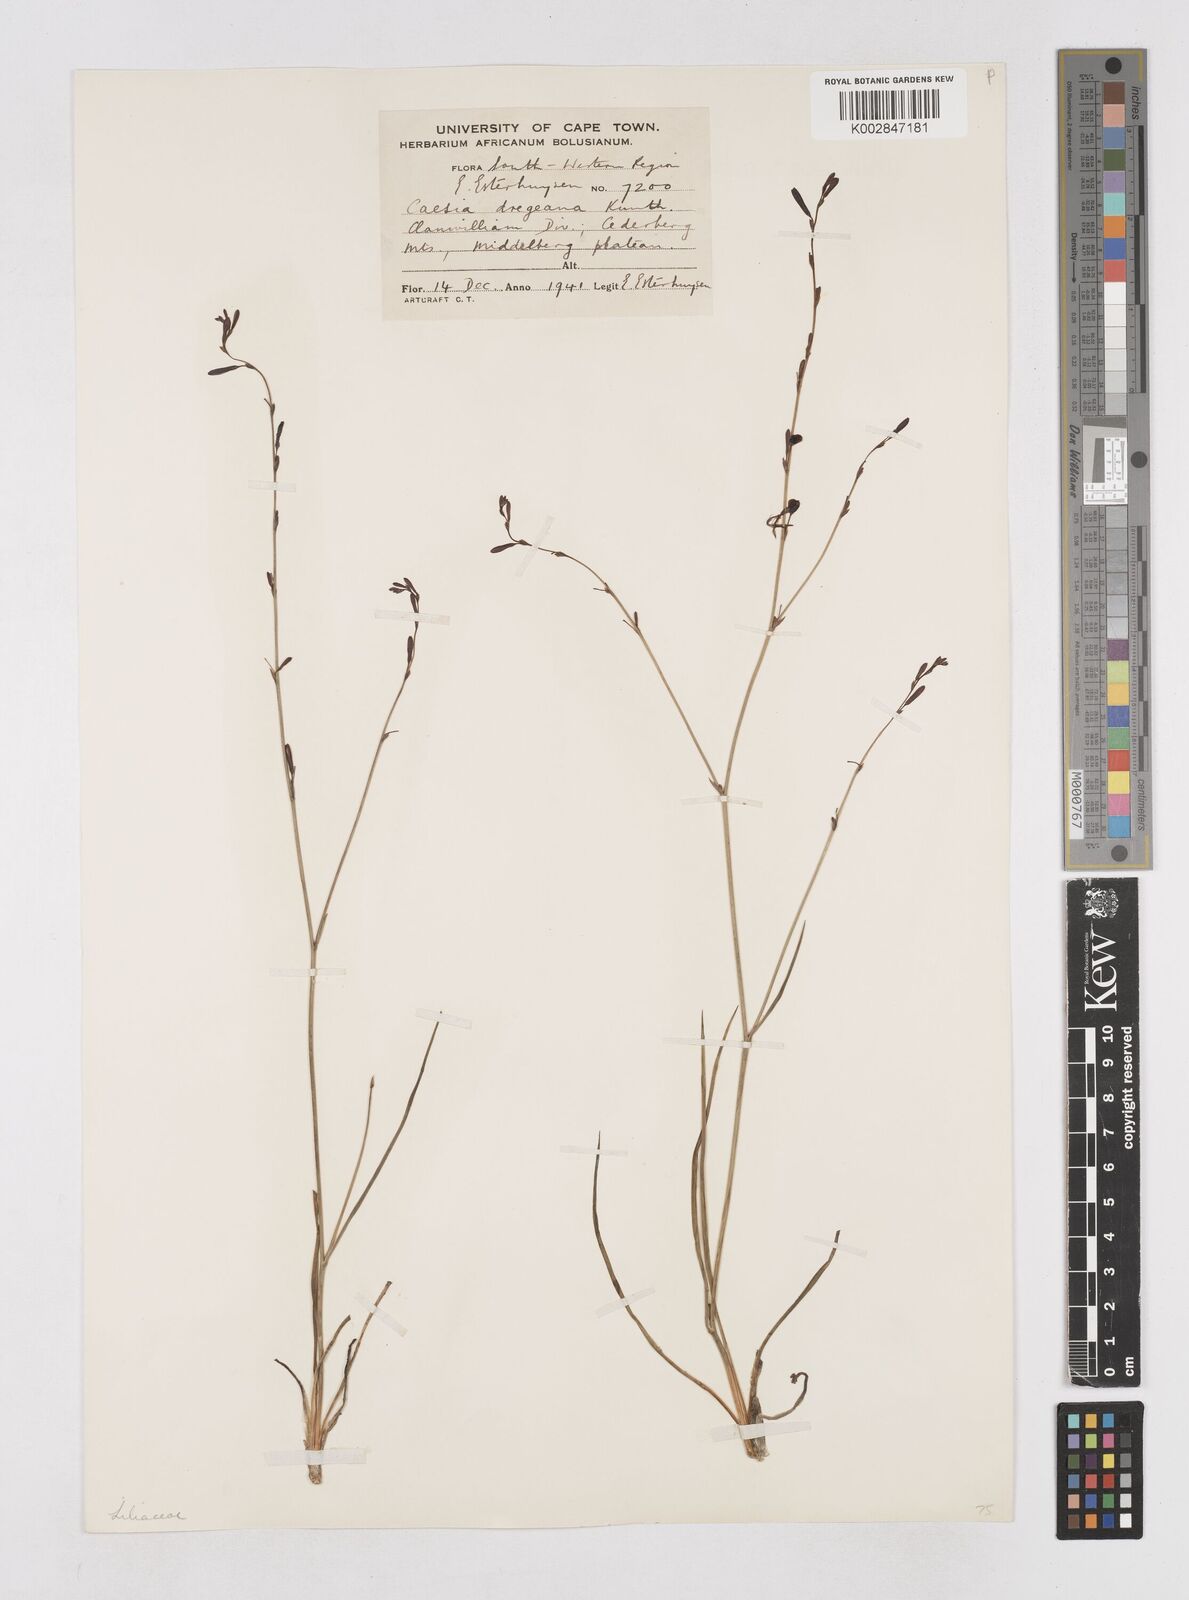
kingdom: Plantae
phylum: Tracheophyta
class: Liliopsida
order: Asparagales
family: Asphodelaceae
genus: Caesia
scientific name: Caesia contorta
